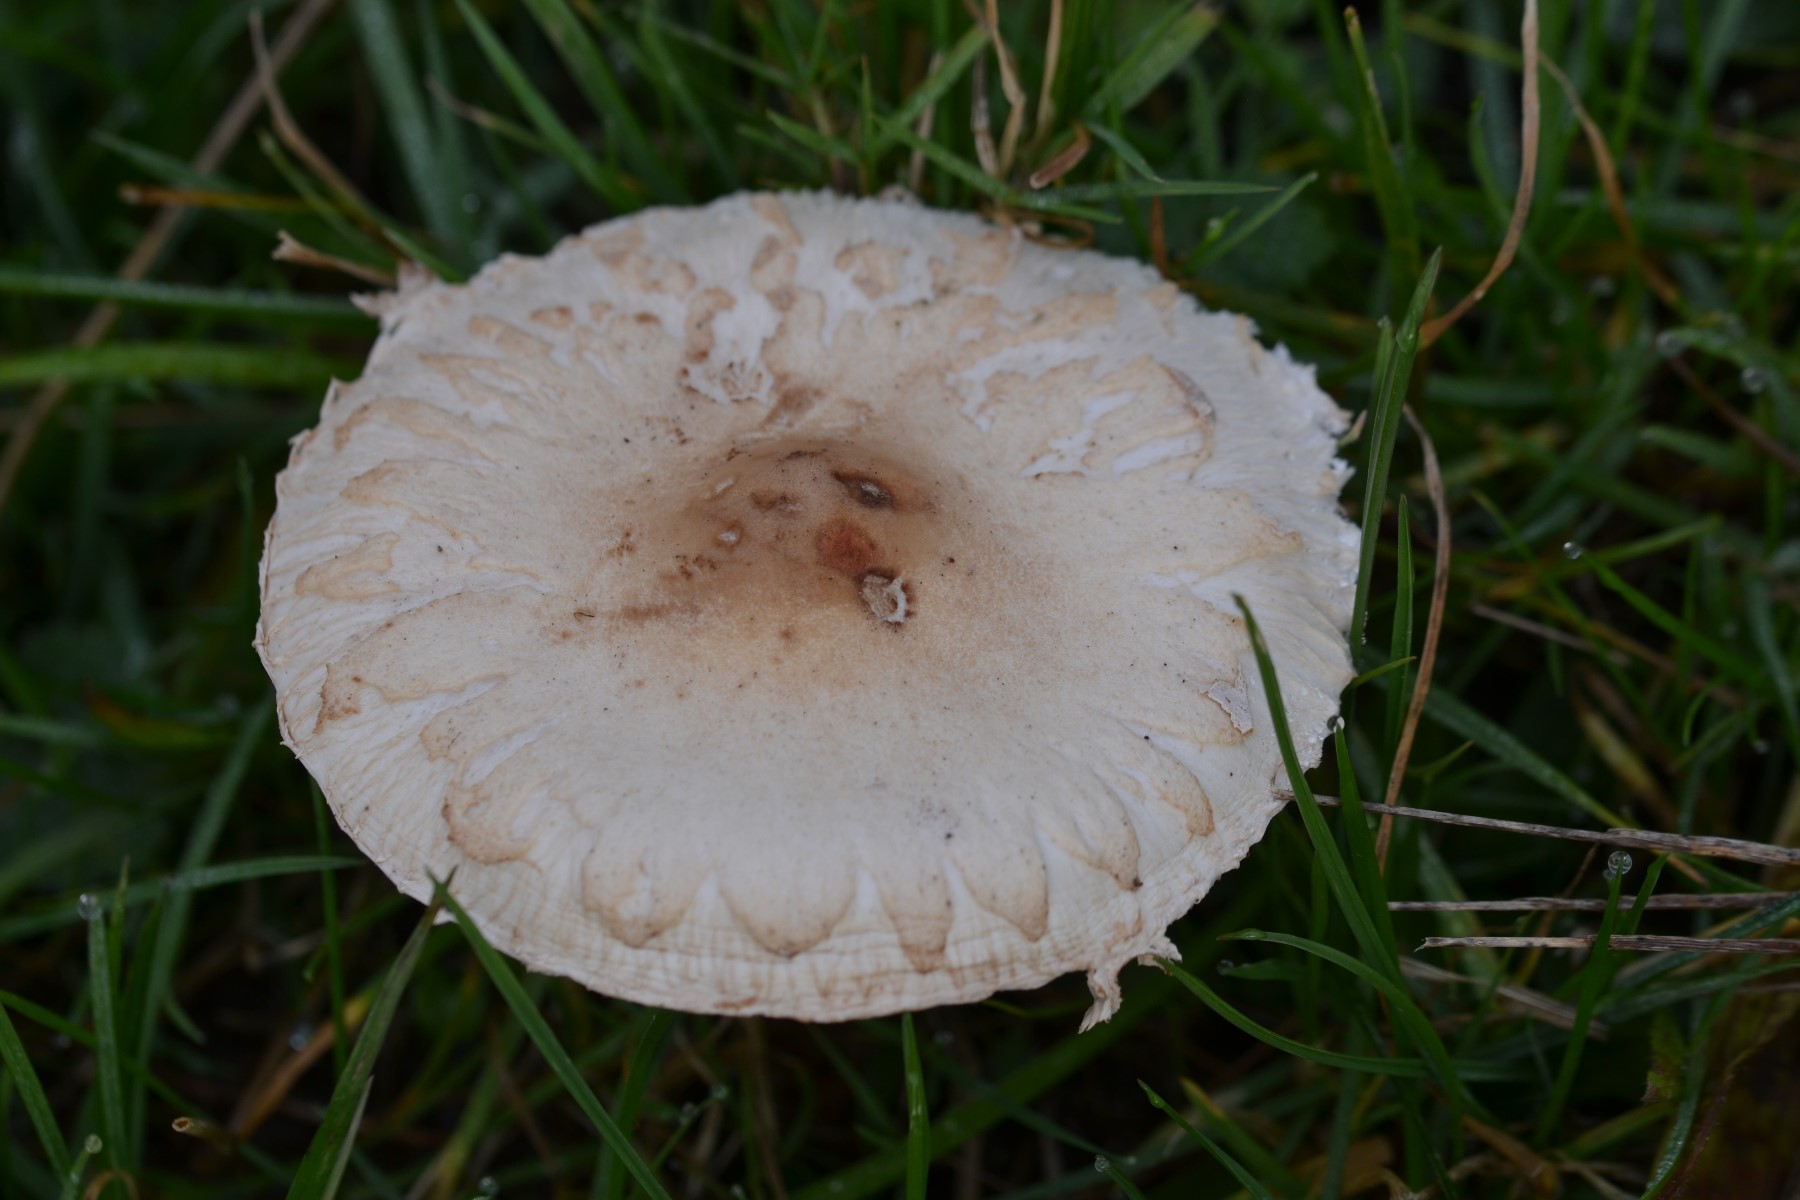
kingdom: Fungi
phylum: Basidiomycota
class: Agaricomycetes
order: Agaricales
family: Agaricaceae
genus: Macrolepiota
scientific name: Macrolepiota
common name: kæmpeparasolhat
